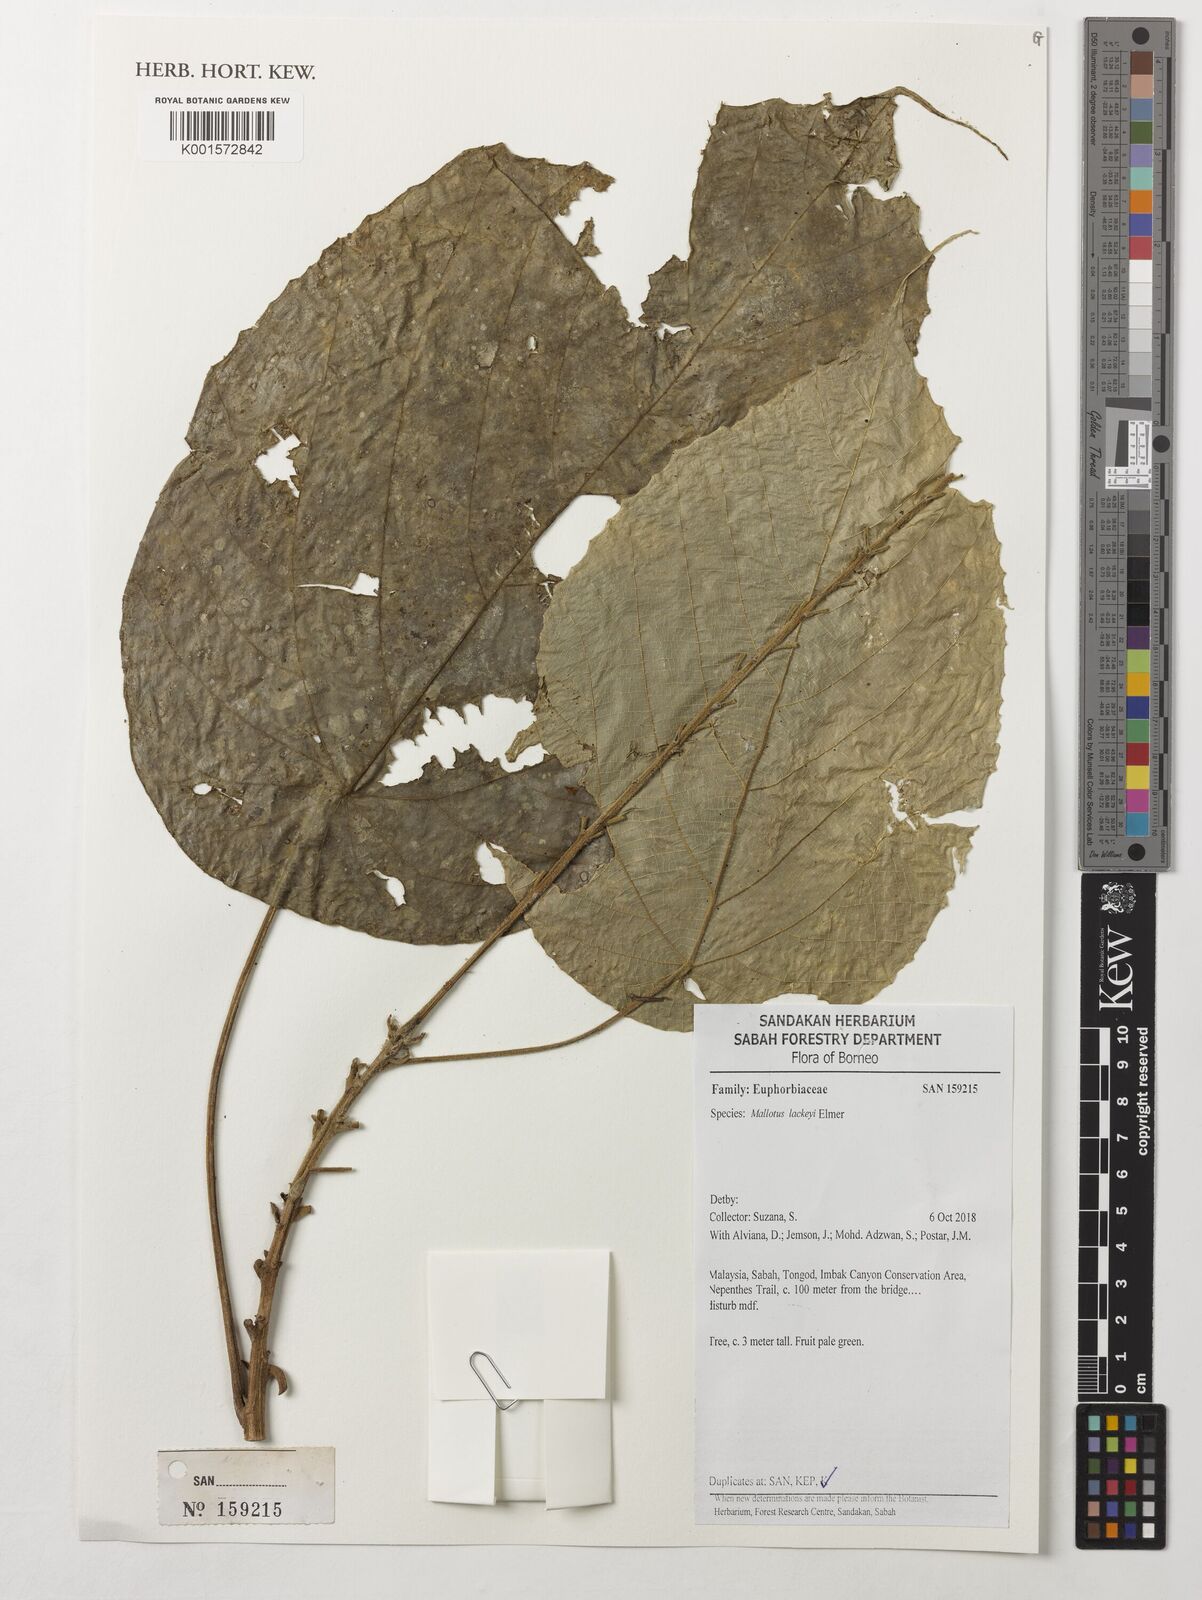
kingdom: Plantae
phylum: Tracheophyta
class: Magnoliopsida
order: Malpighiales
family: Euphorbiaceae
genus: Mallotus
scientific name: Mallotus lackeyi
